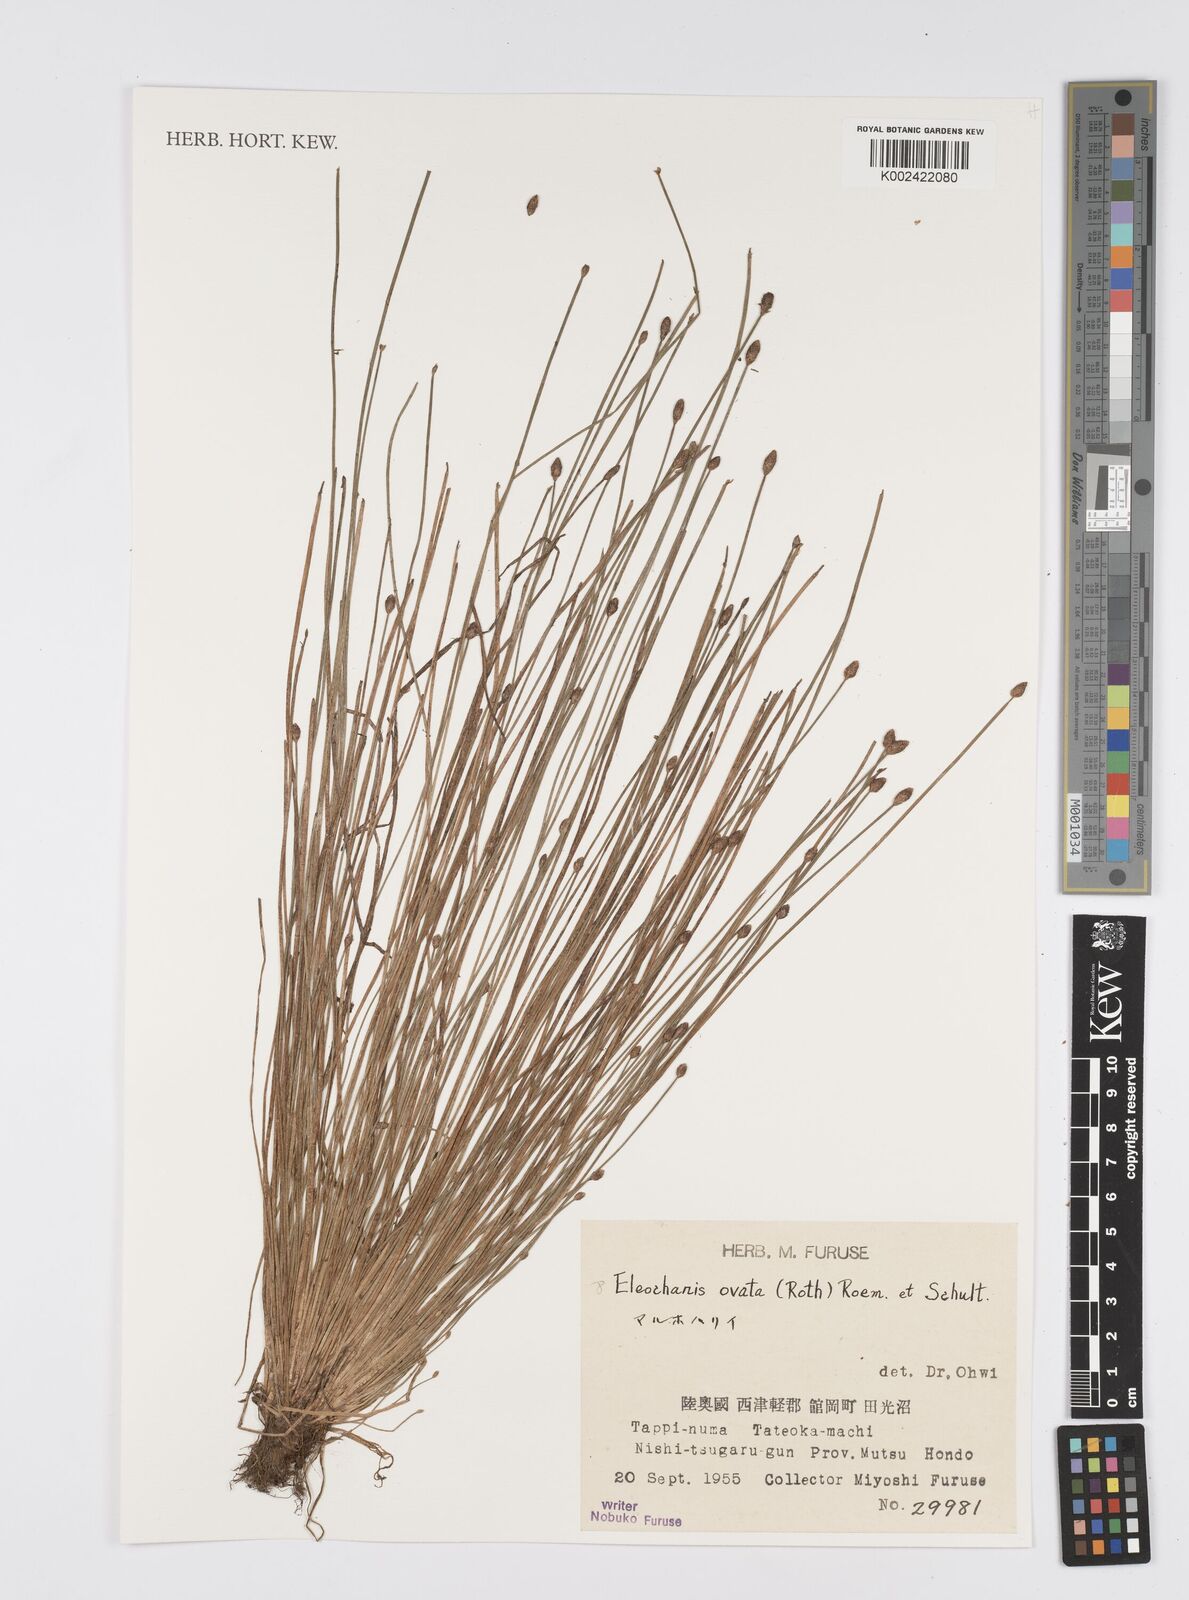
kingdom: Plantae
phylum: Tracheophyta
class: Liliopsida
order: Poales
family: Cyperaceae
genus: Eleocharis
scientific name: Eleocharis ovata
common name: Oval spike-rush
